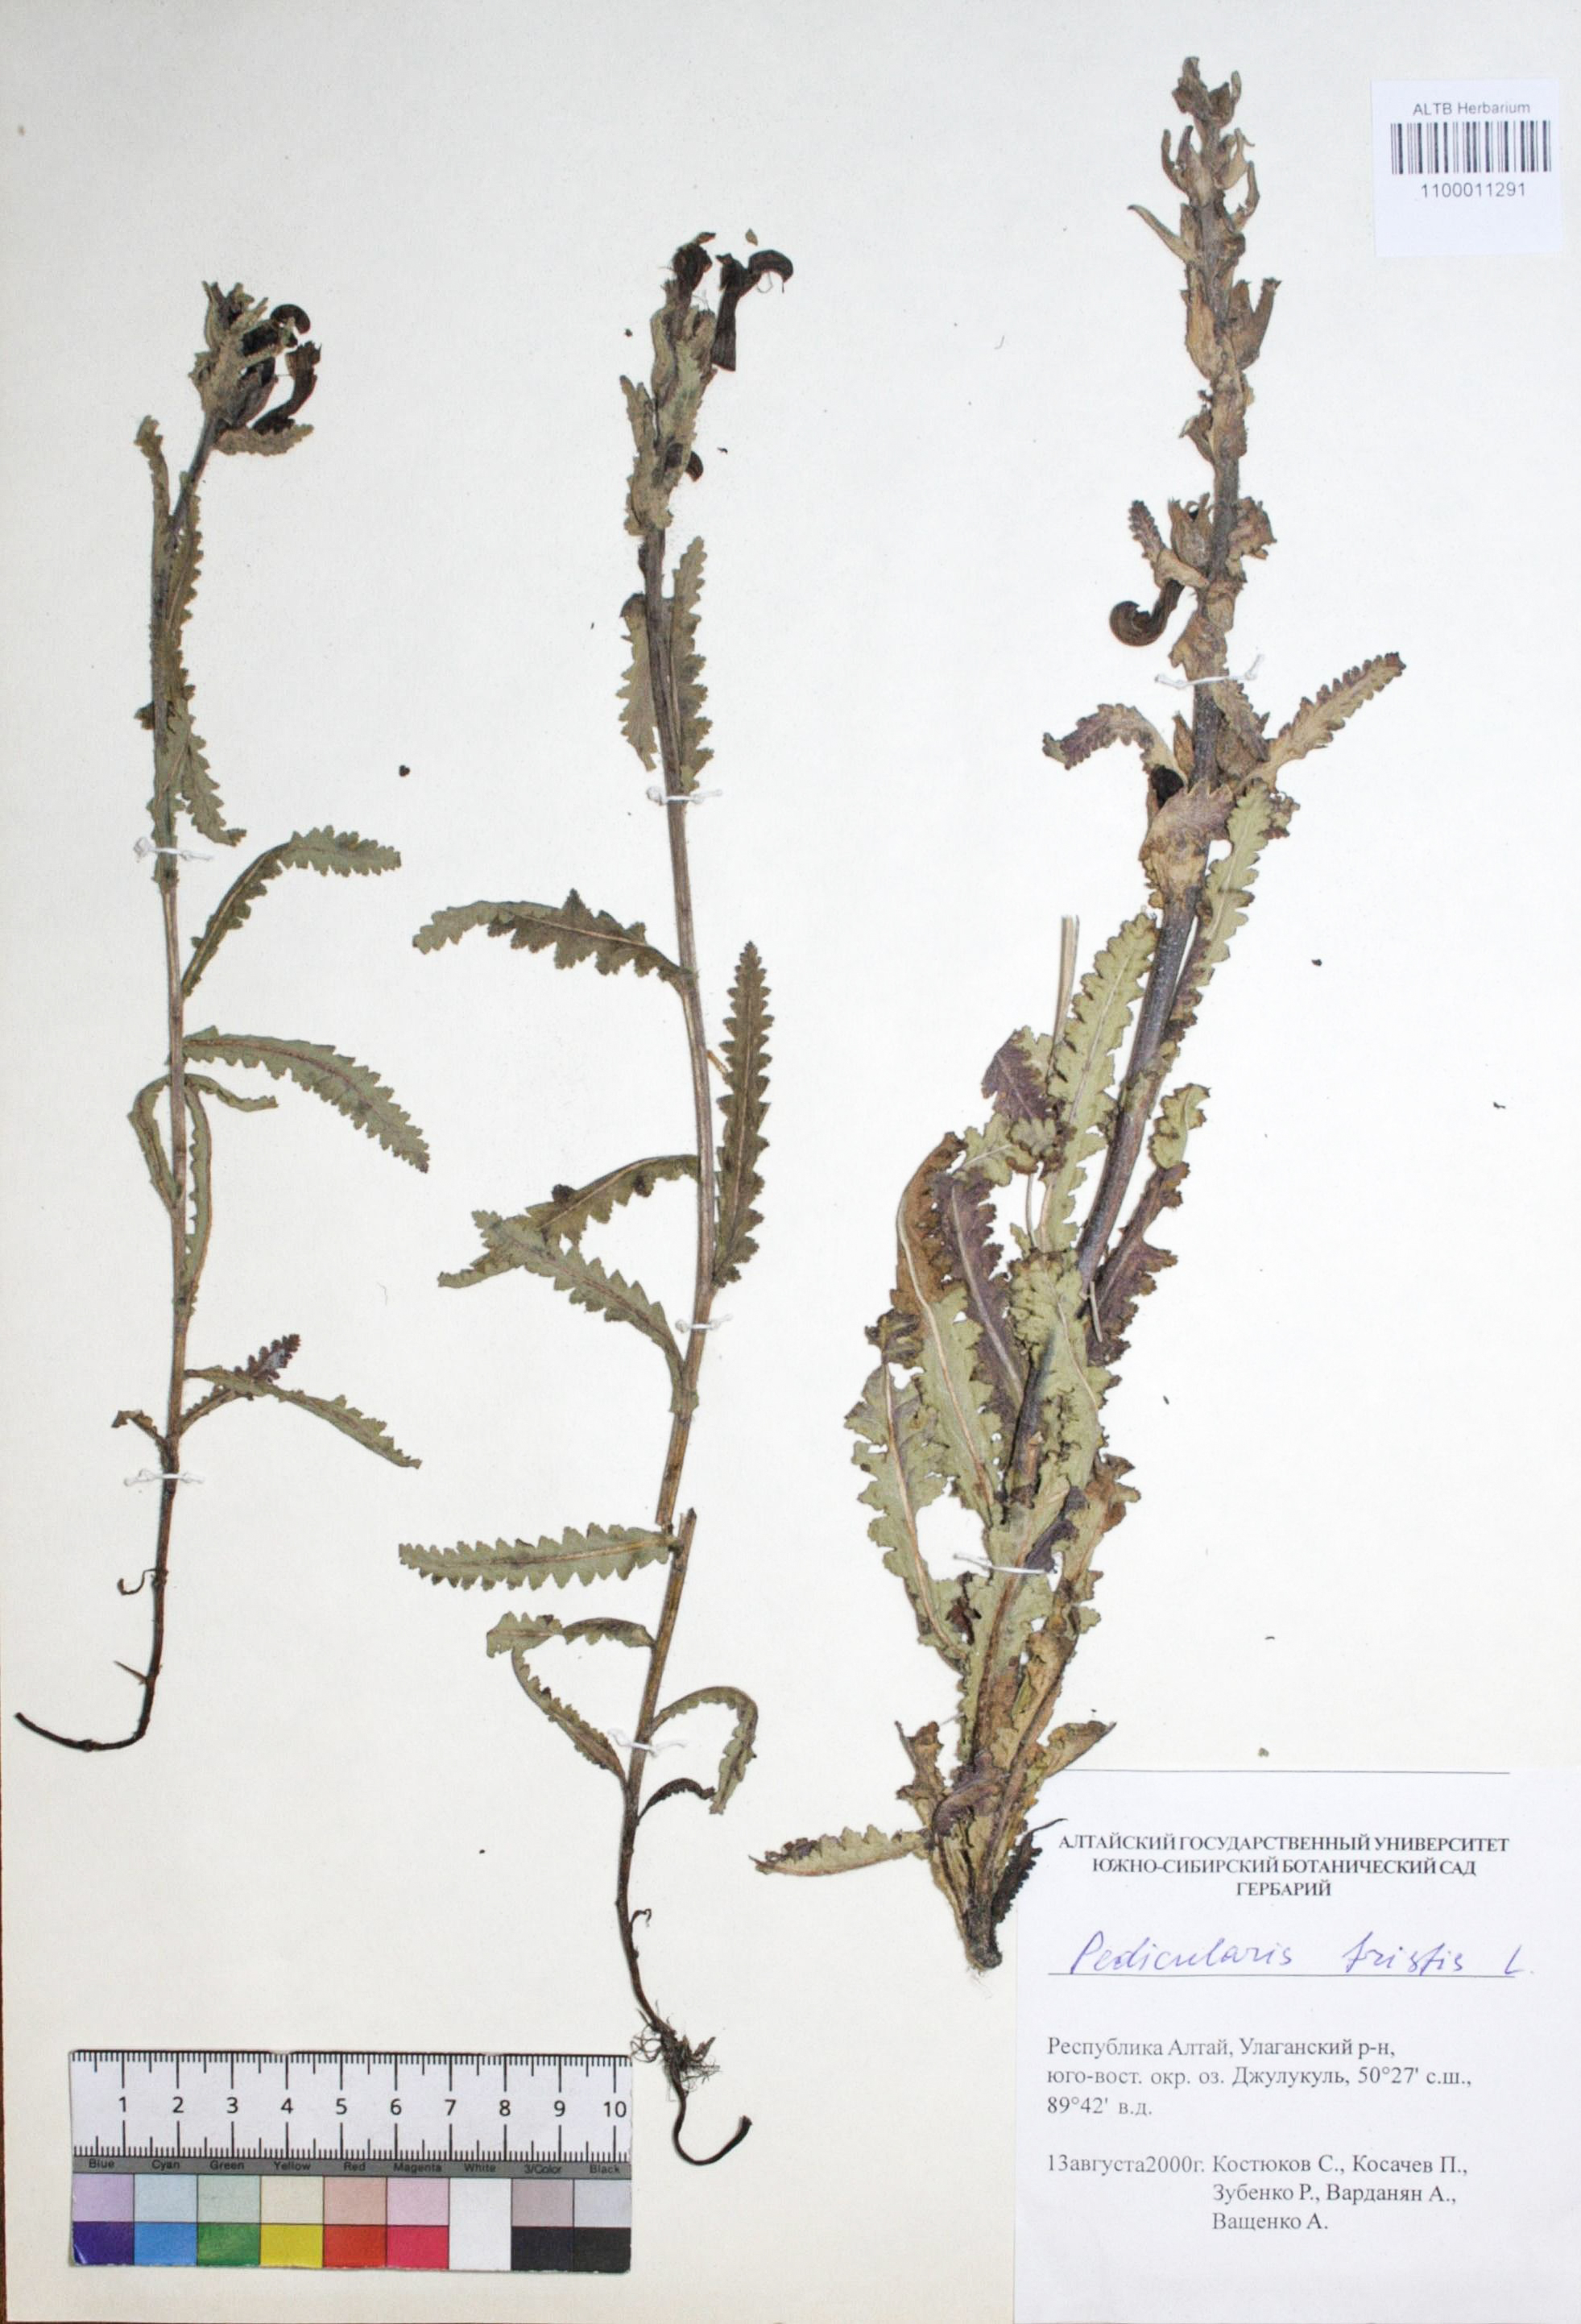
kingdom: Plantae
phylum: Tracheophyta
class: Magnoliopsida
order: Lamiales
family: Orobanchaceae
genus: Pedicularis
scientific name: Pedicularis tristis
